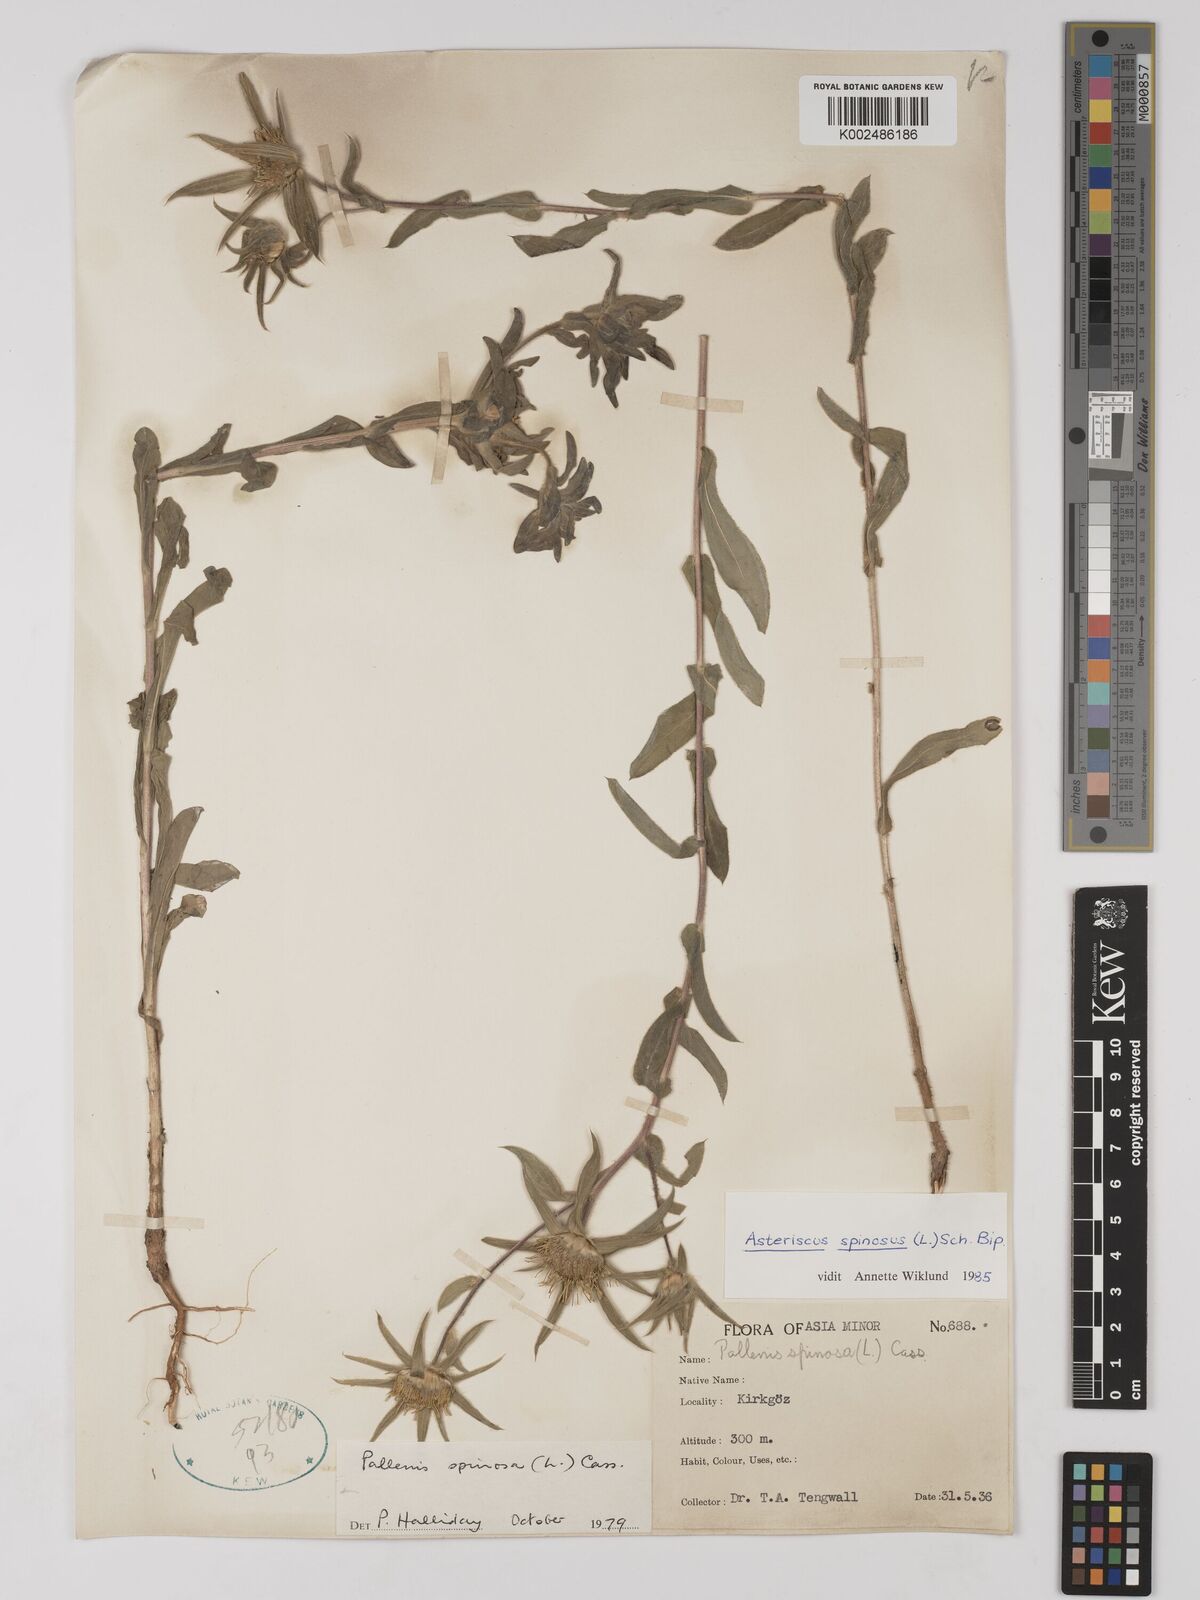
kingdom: Plantae
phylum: Tracheophyta
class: Magnoliopsida
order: Asterales
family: Asteraceae
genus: Pallenis
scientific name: Pallenis spinosa
